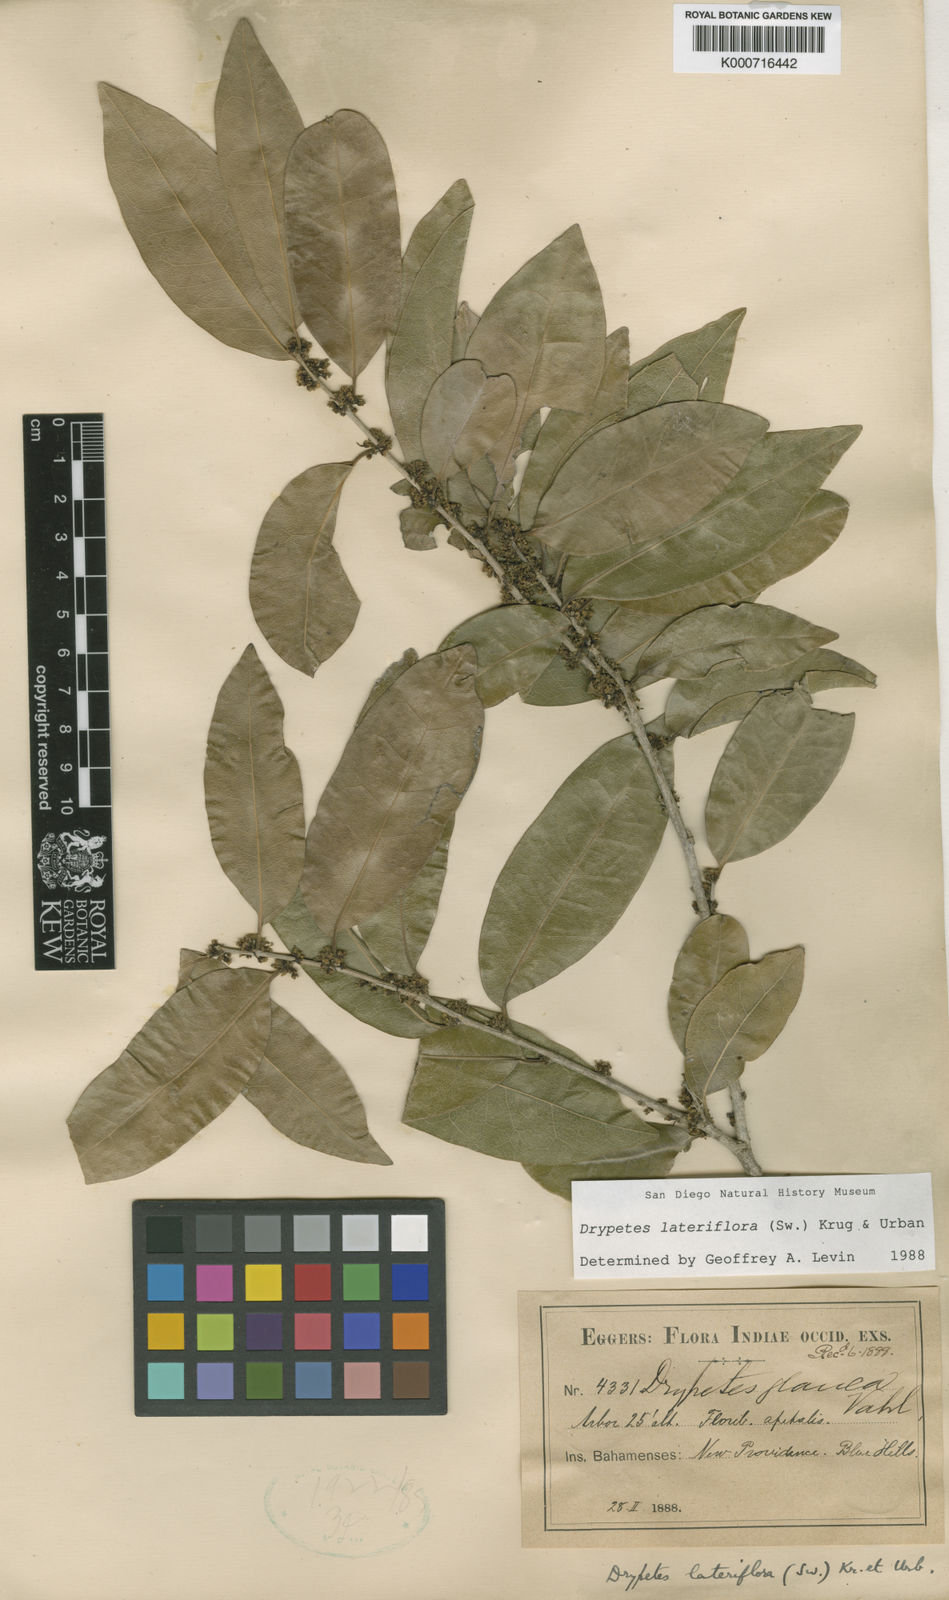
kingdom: Plantae
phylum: Tracheophyta
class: Magnoliopsida
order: Malpighiales
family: Putranjivaceae
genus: Drypetes
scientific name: Drypetes lateriflora
